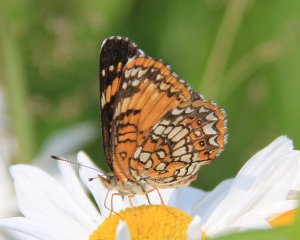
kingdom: Animalia
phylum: Arthropoda
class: Insecta
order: Lepidoptera
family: Nymphalidae
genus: Chlosyne
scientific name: Chlosyne harrisii
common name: Harris's Checkerspot
